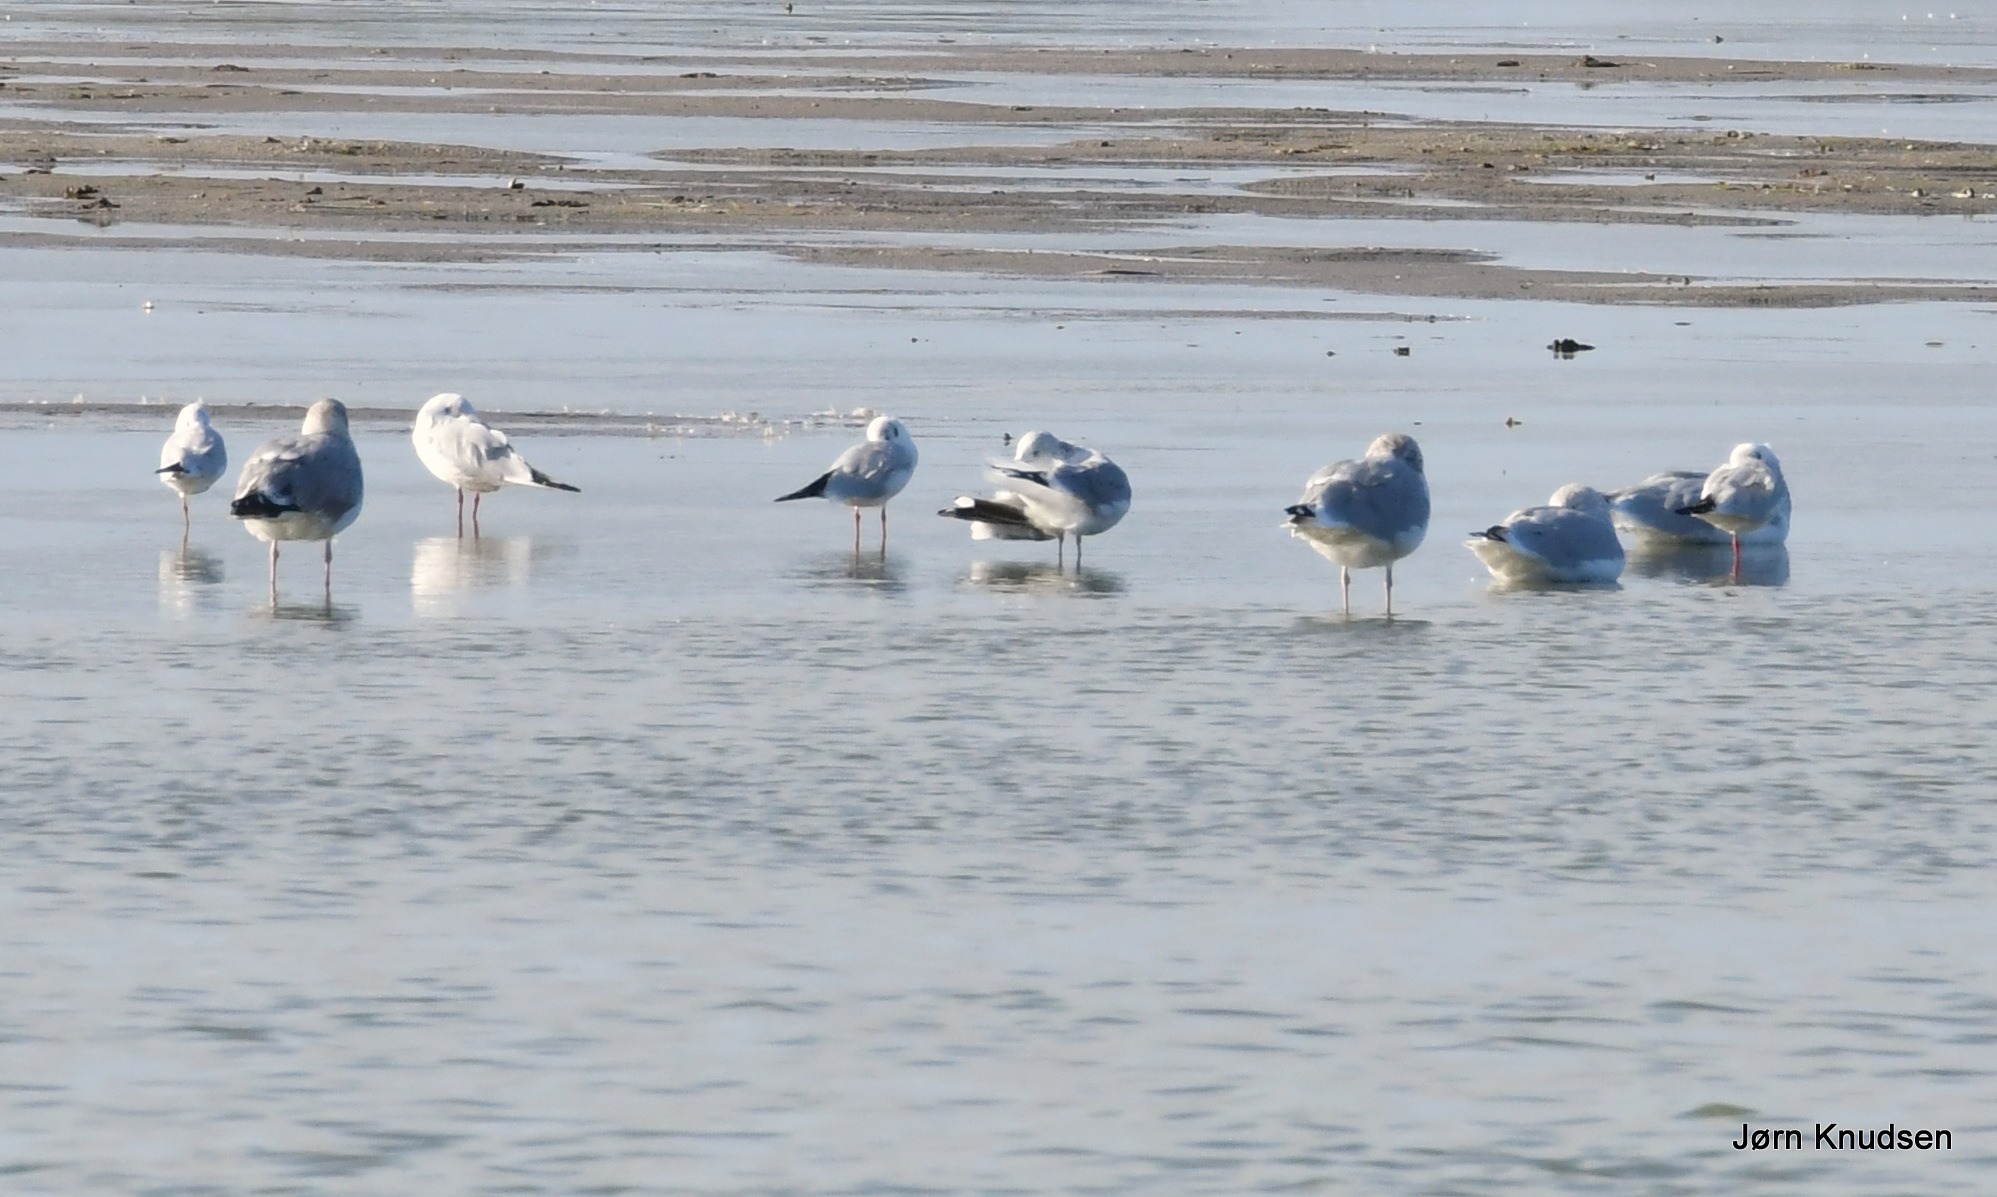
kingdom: Animalia
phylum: Chordata
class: Aves
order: Charadriiformes
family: Laridae
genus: Chroicocephalus
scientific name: Chroicocephalus ridibundus
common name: Hættemåge
